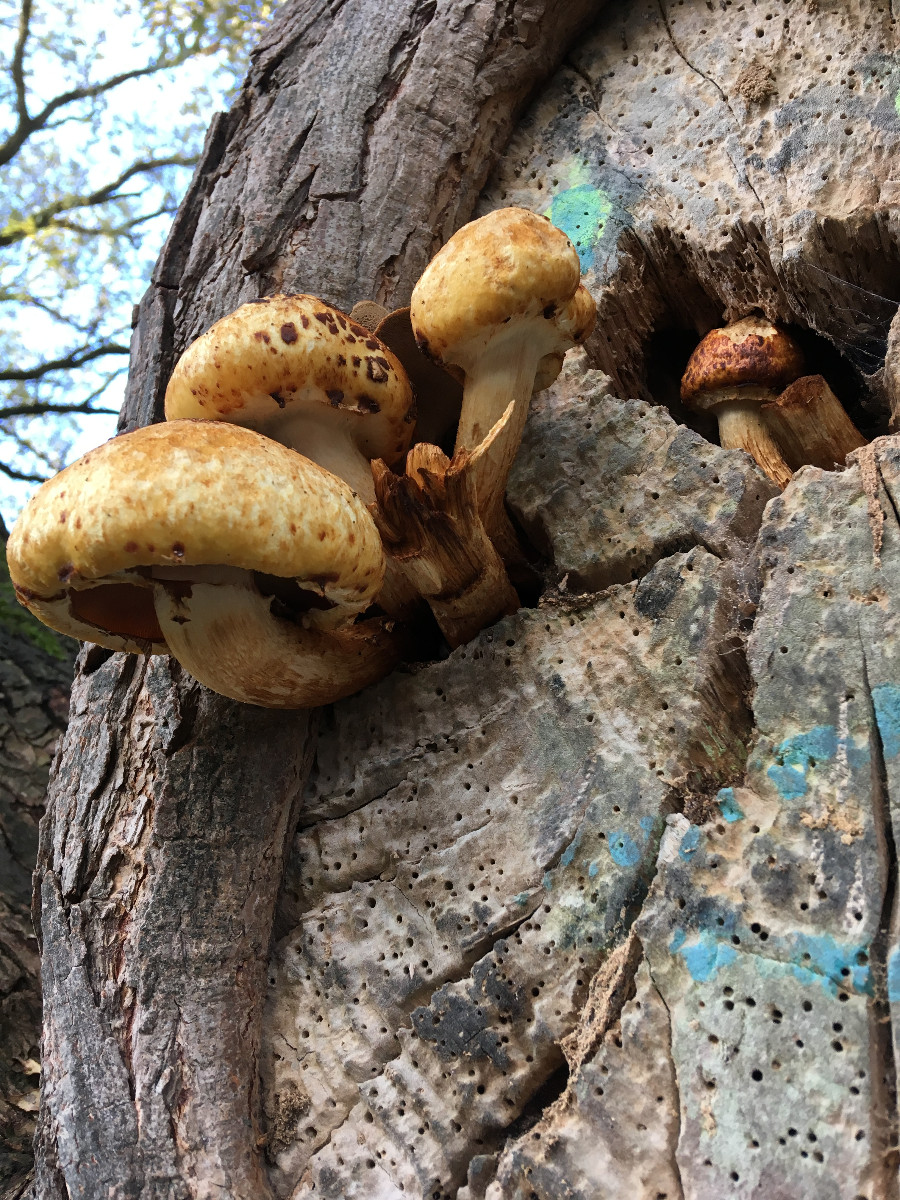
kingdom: Fungi
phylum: Basidiomycota
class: Agaricomycetes
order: Agaricales
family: Strophariaceae
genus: Pholiota
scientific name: Pholiota aurivella
